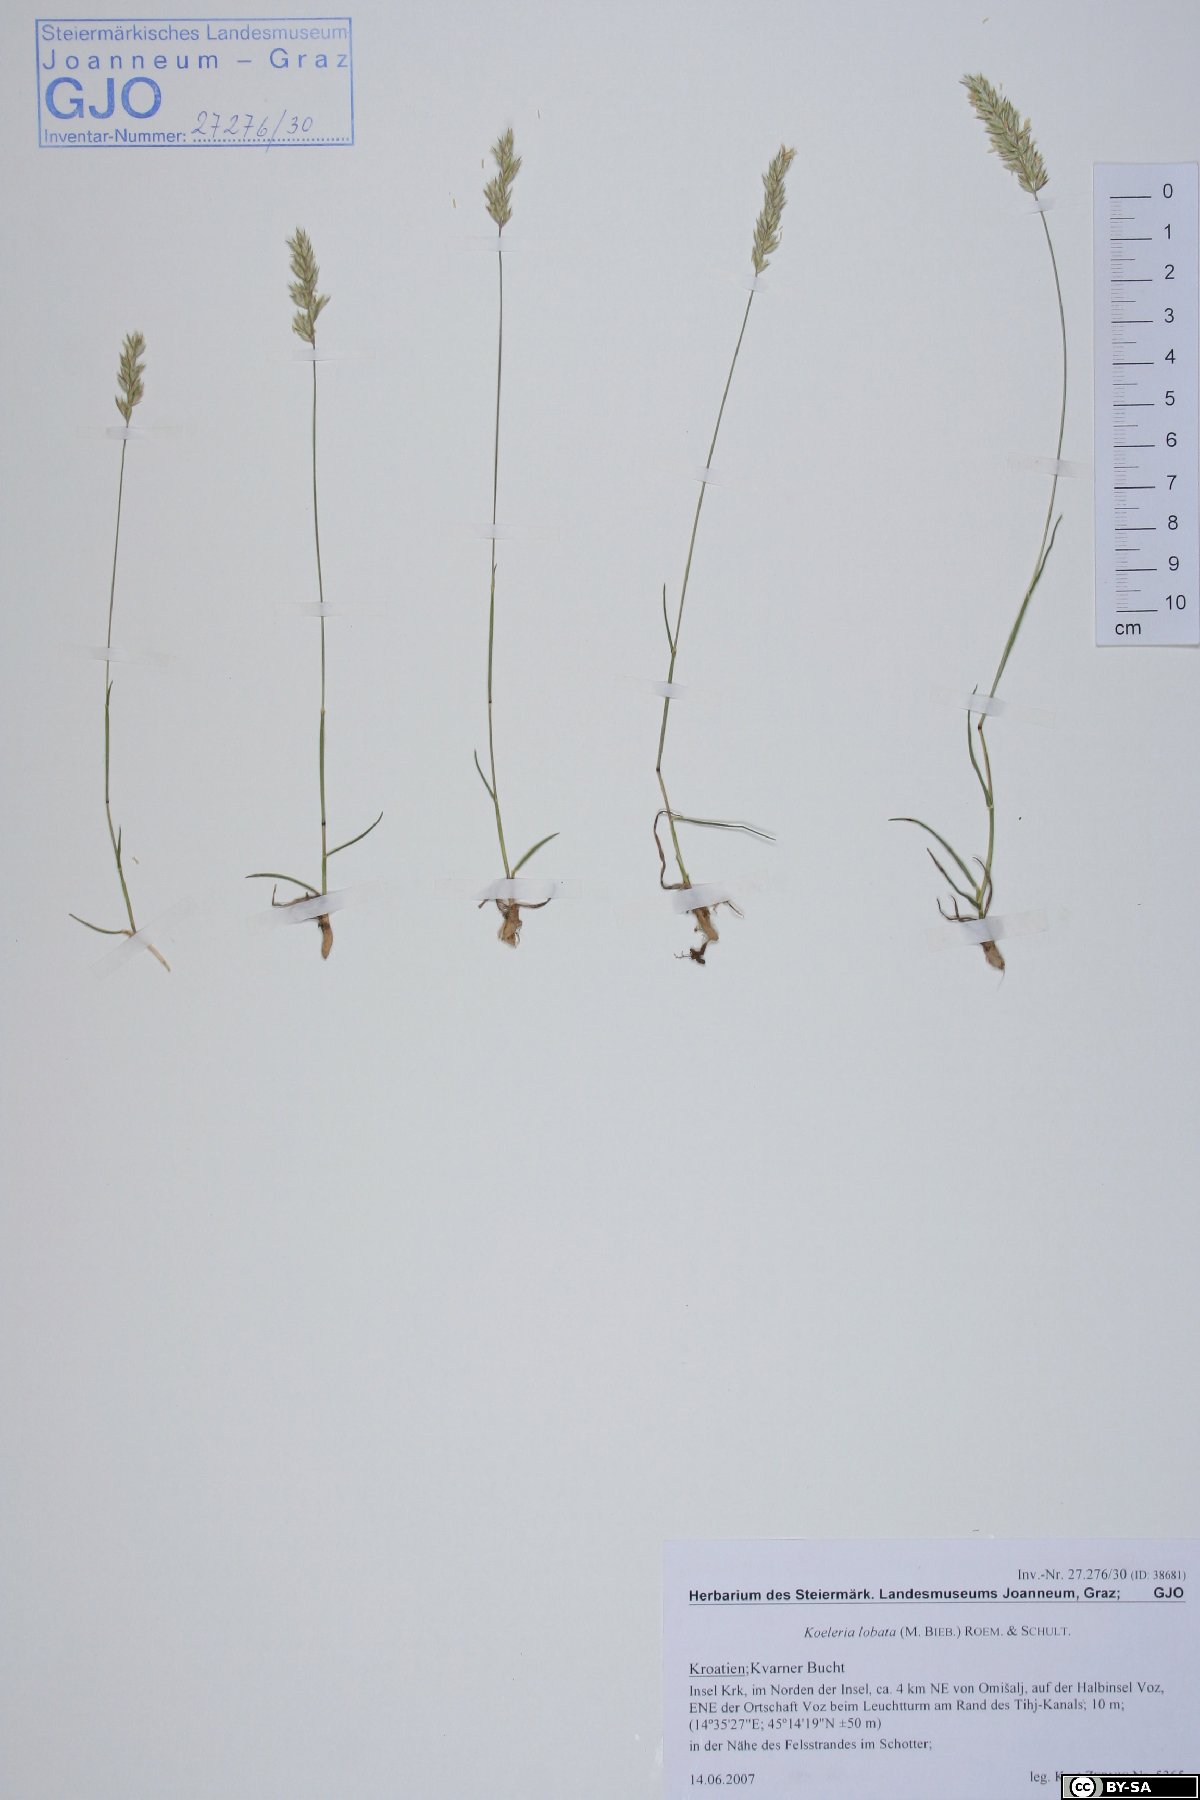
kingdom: Plantae
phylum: Tracheophyta
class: Liliopsida
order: Poales
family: Poaceae
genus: Koeleria
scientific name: Koeleria brevis
